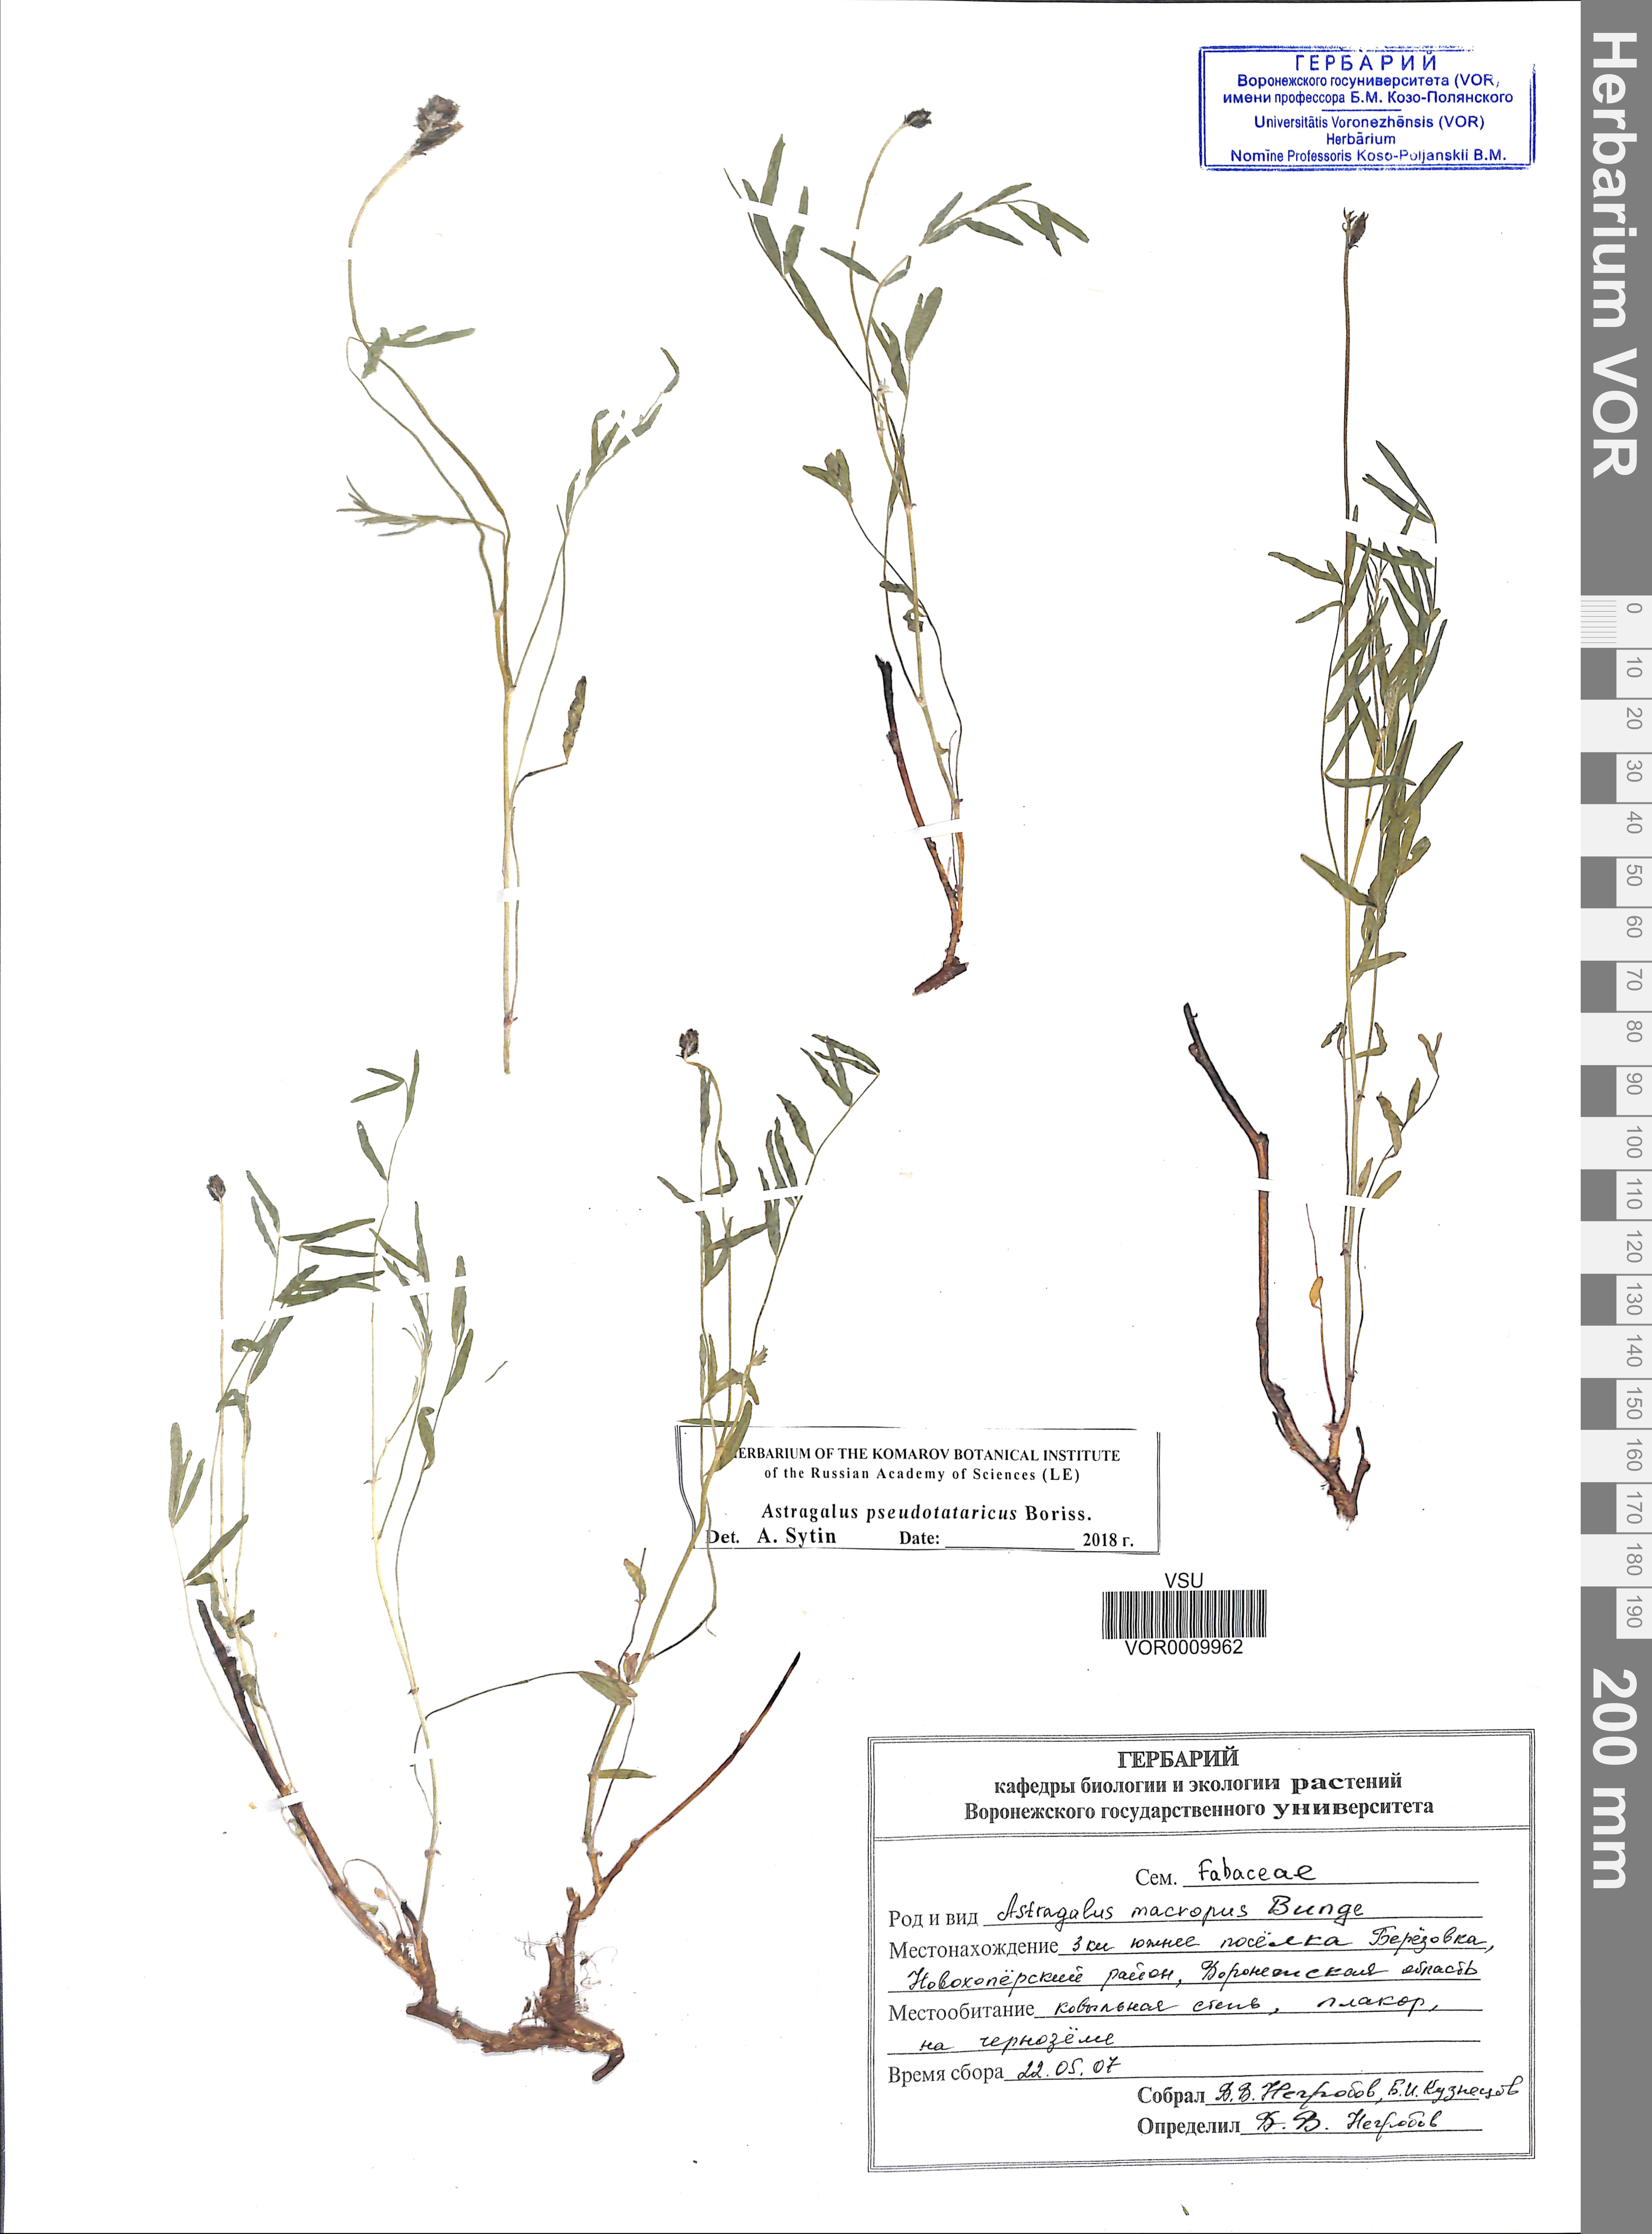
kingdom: Plantae
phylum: Tracheophyta
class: Magnoliopsida
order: Fabales
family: Fabaceae
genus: Astragalus
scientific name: Astragalus pseudotataricus
